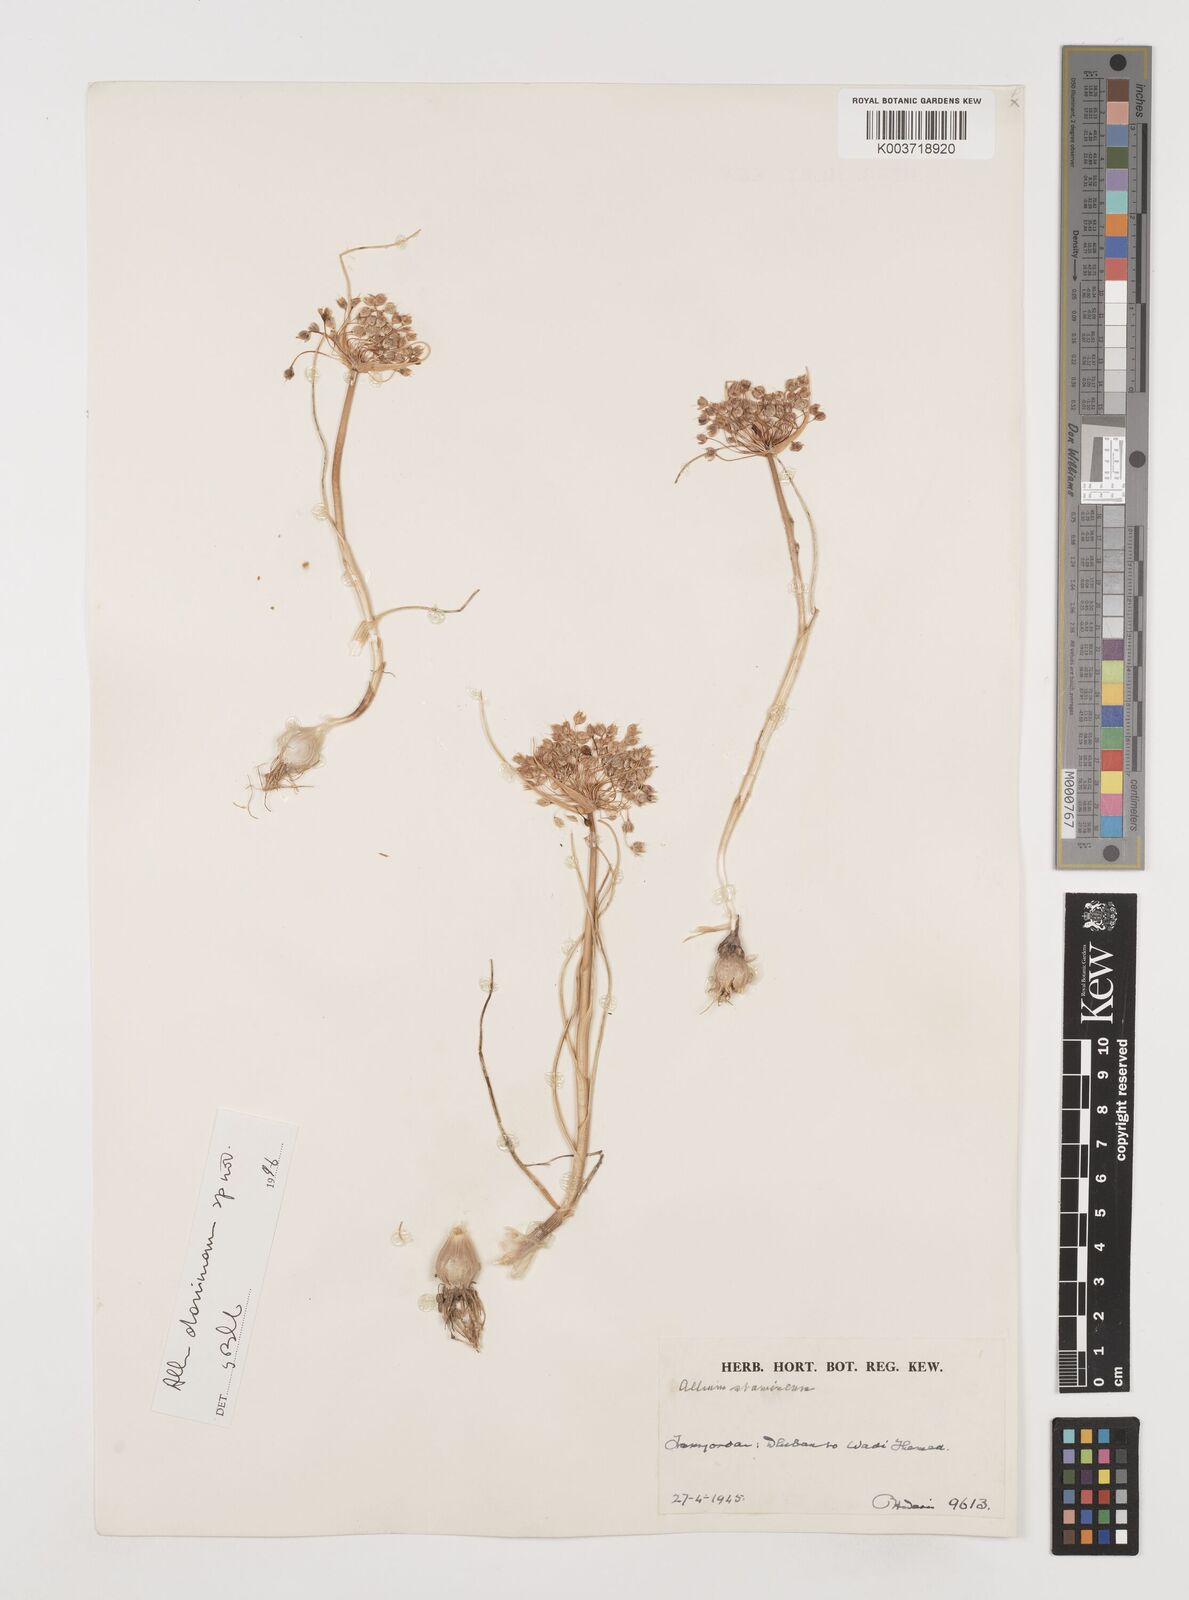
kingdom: Plantae
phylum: Tracheophyta
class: Liliopsida
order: Asparagales
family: Amaryllidaceae
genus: Allium
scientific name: Allium stamineum
